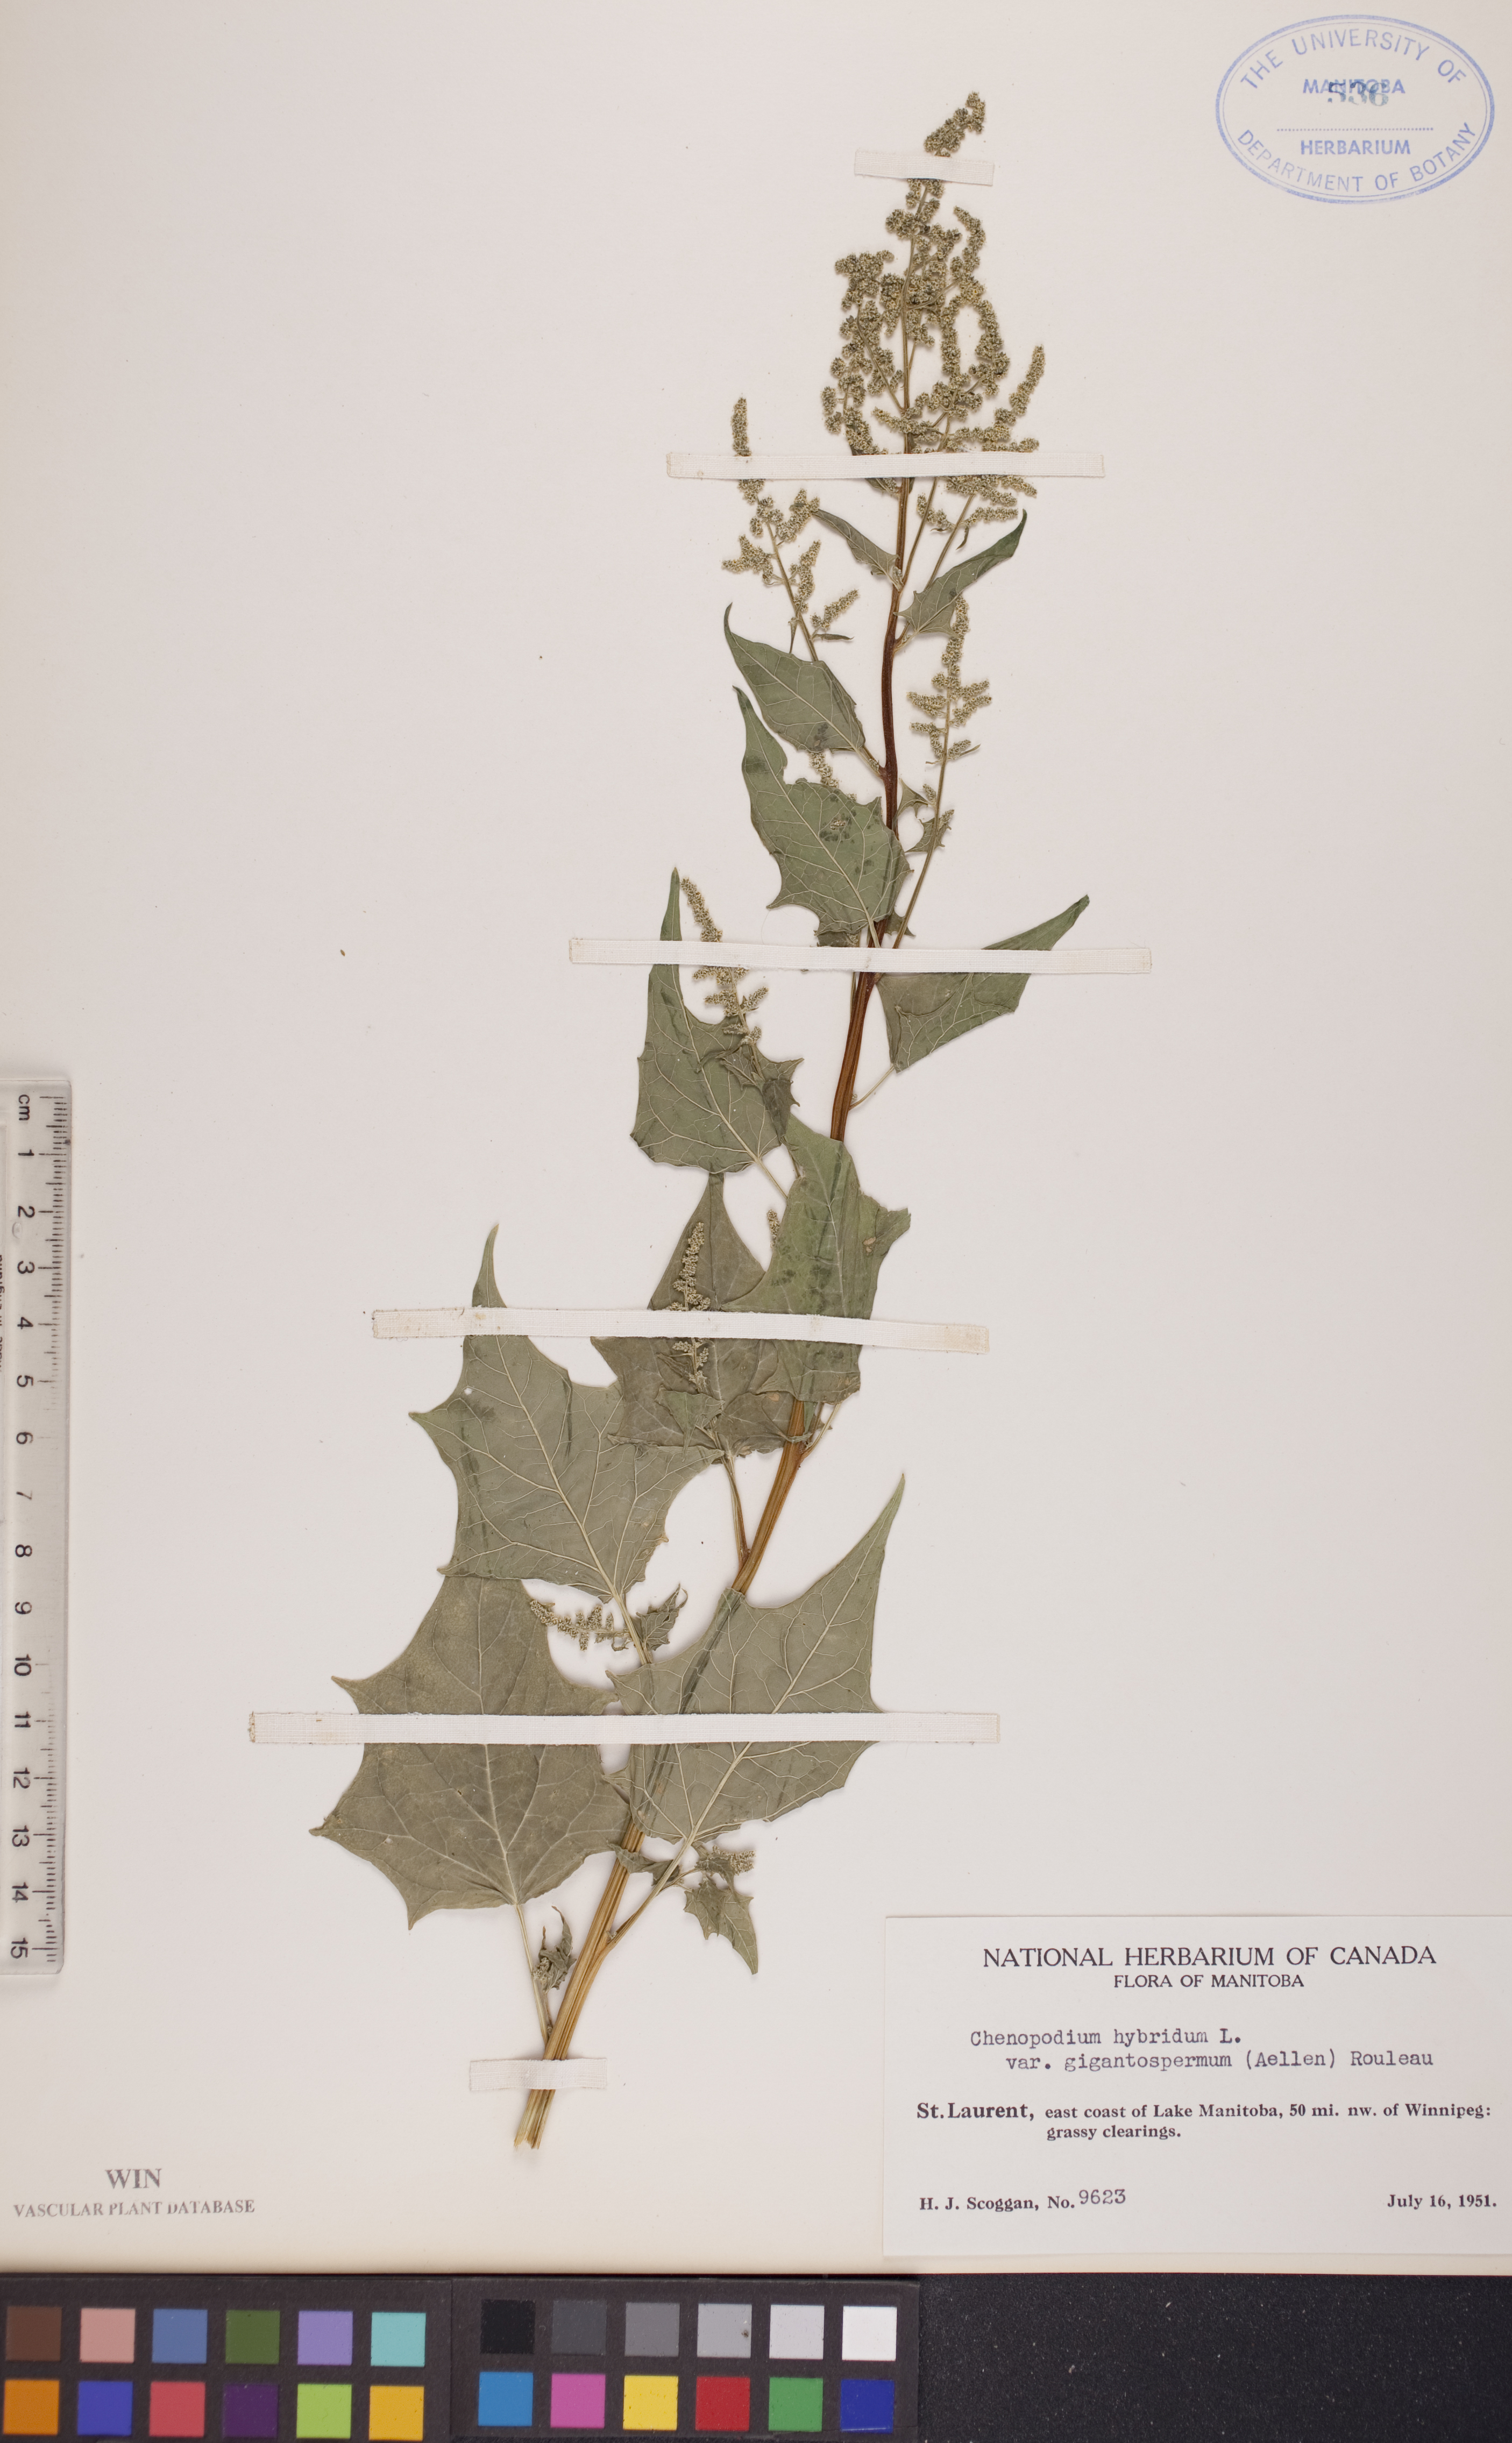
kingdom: Plantae
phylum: Tracheophyta
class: Magnoliopsida
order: Caryophyllales
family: Amaranthaceae
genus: Chenopodiastrum
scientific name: Chenopodiastrum simplex
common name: Large-seed goosefoot
